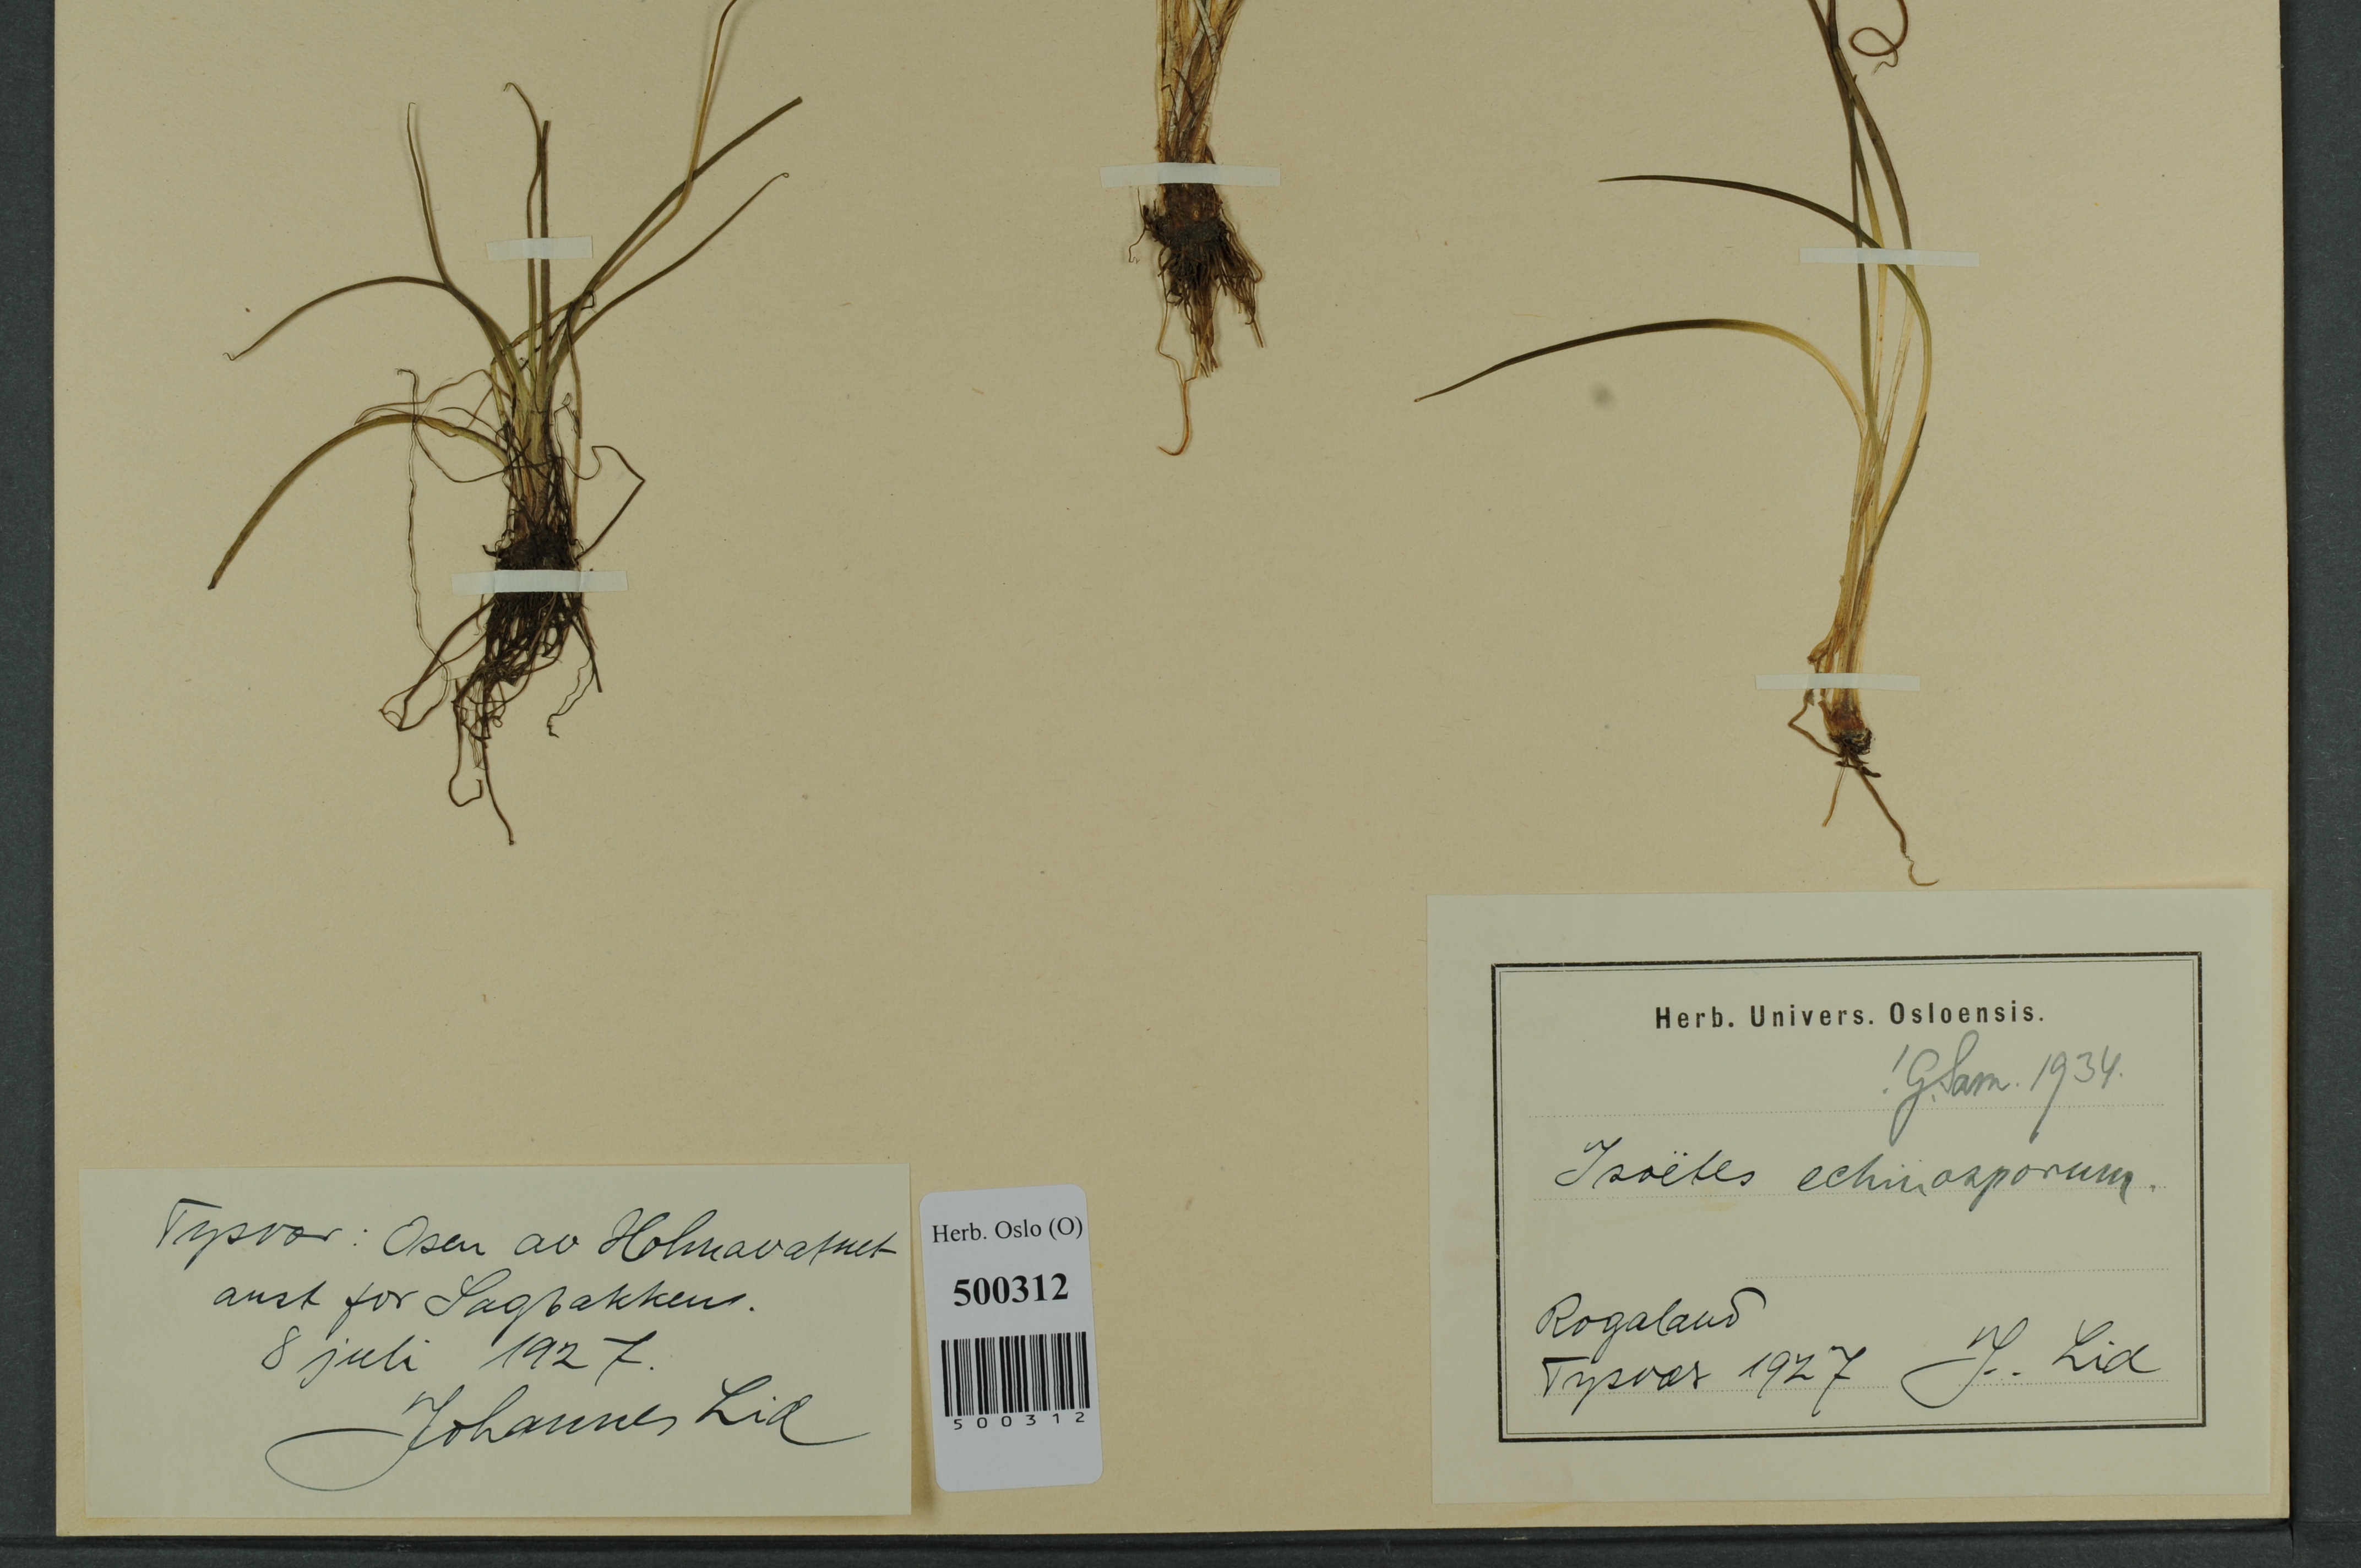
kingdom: Plantae
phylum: Tracheophyta
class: Lycopodiopsida
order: Isoetales
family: Isoetaceae
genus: Isoetes
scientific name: Isoetes echinospora
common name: Spring quillwort
